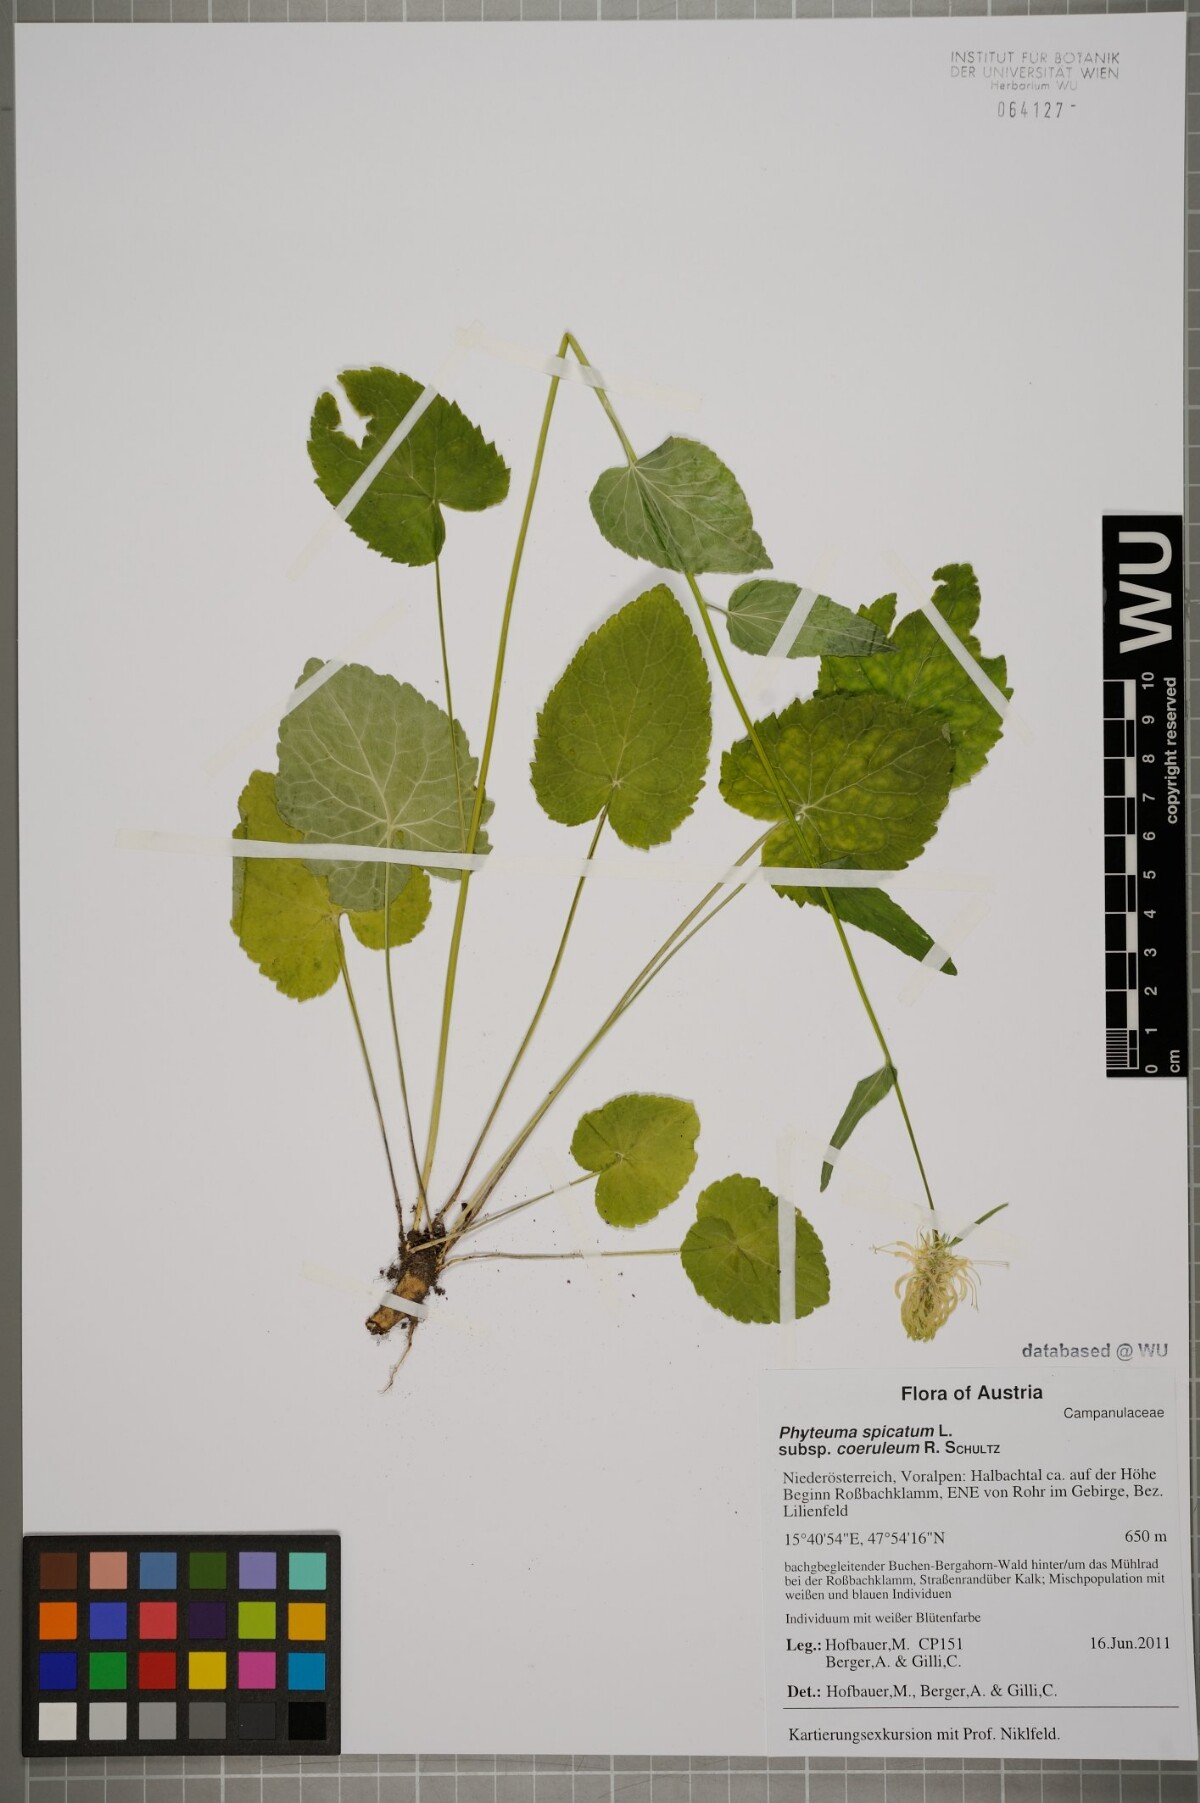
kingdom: Plantae
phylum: Tracheophyta
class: Magnoliopsida
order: Asterales
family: Campanulaceae
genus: Phyteuma
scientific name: Phyteuma spicatum
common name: Spiked rampion
